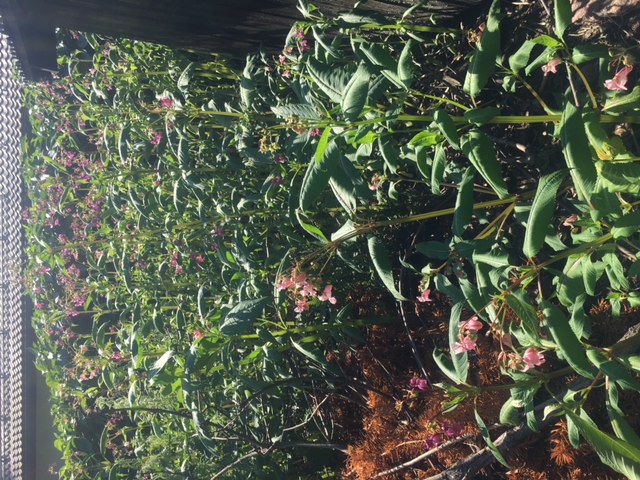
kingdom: Plantae
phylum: Tracheophyta
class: Magnoliopsida
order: Ericales
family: Balsaminaceae
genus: Impatiens
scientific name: Impatiens glandulifera
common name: Himalayan balsam
